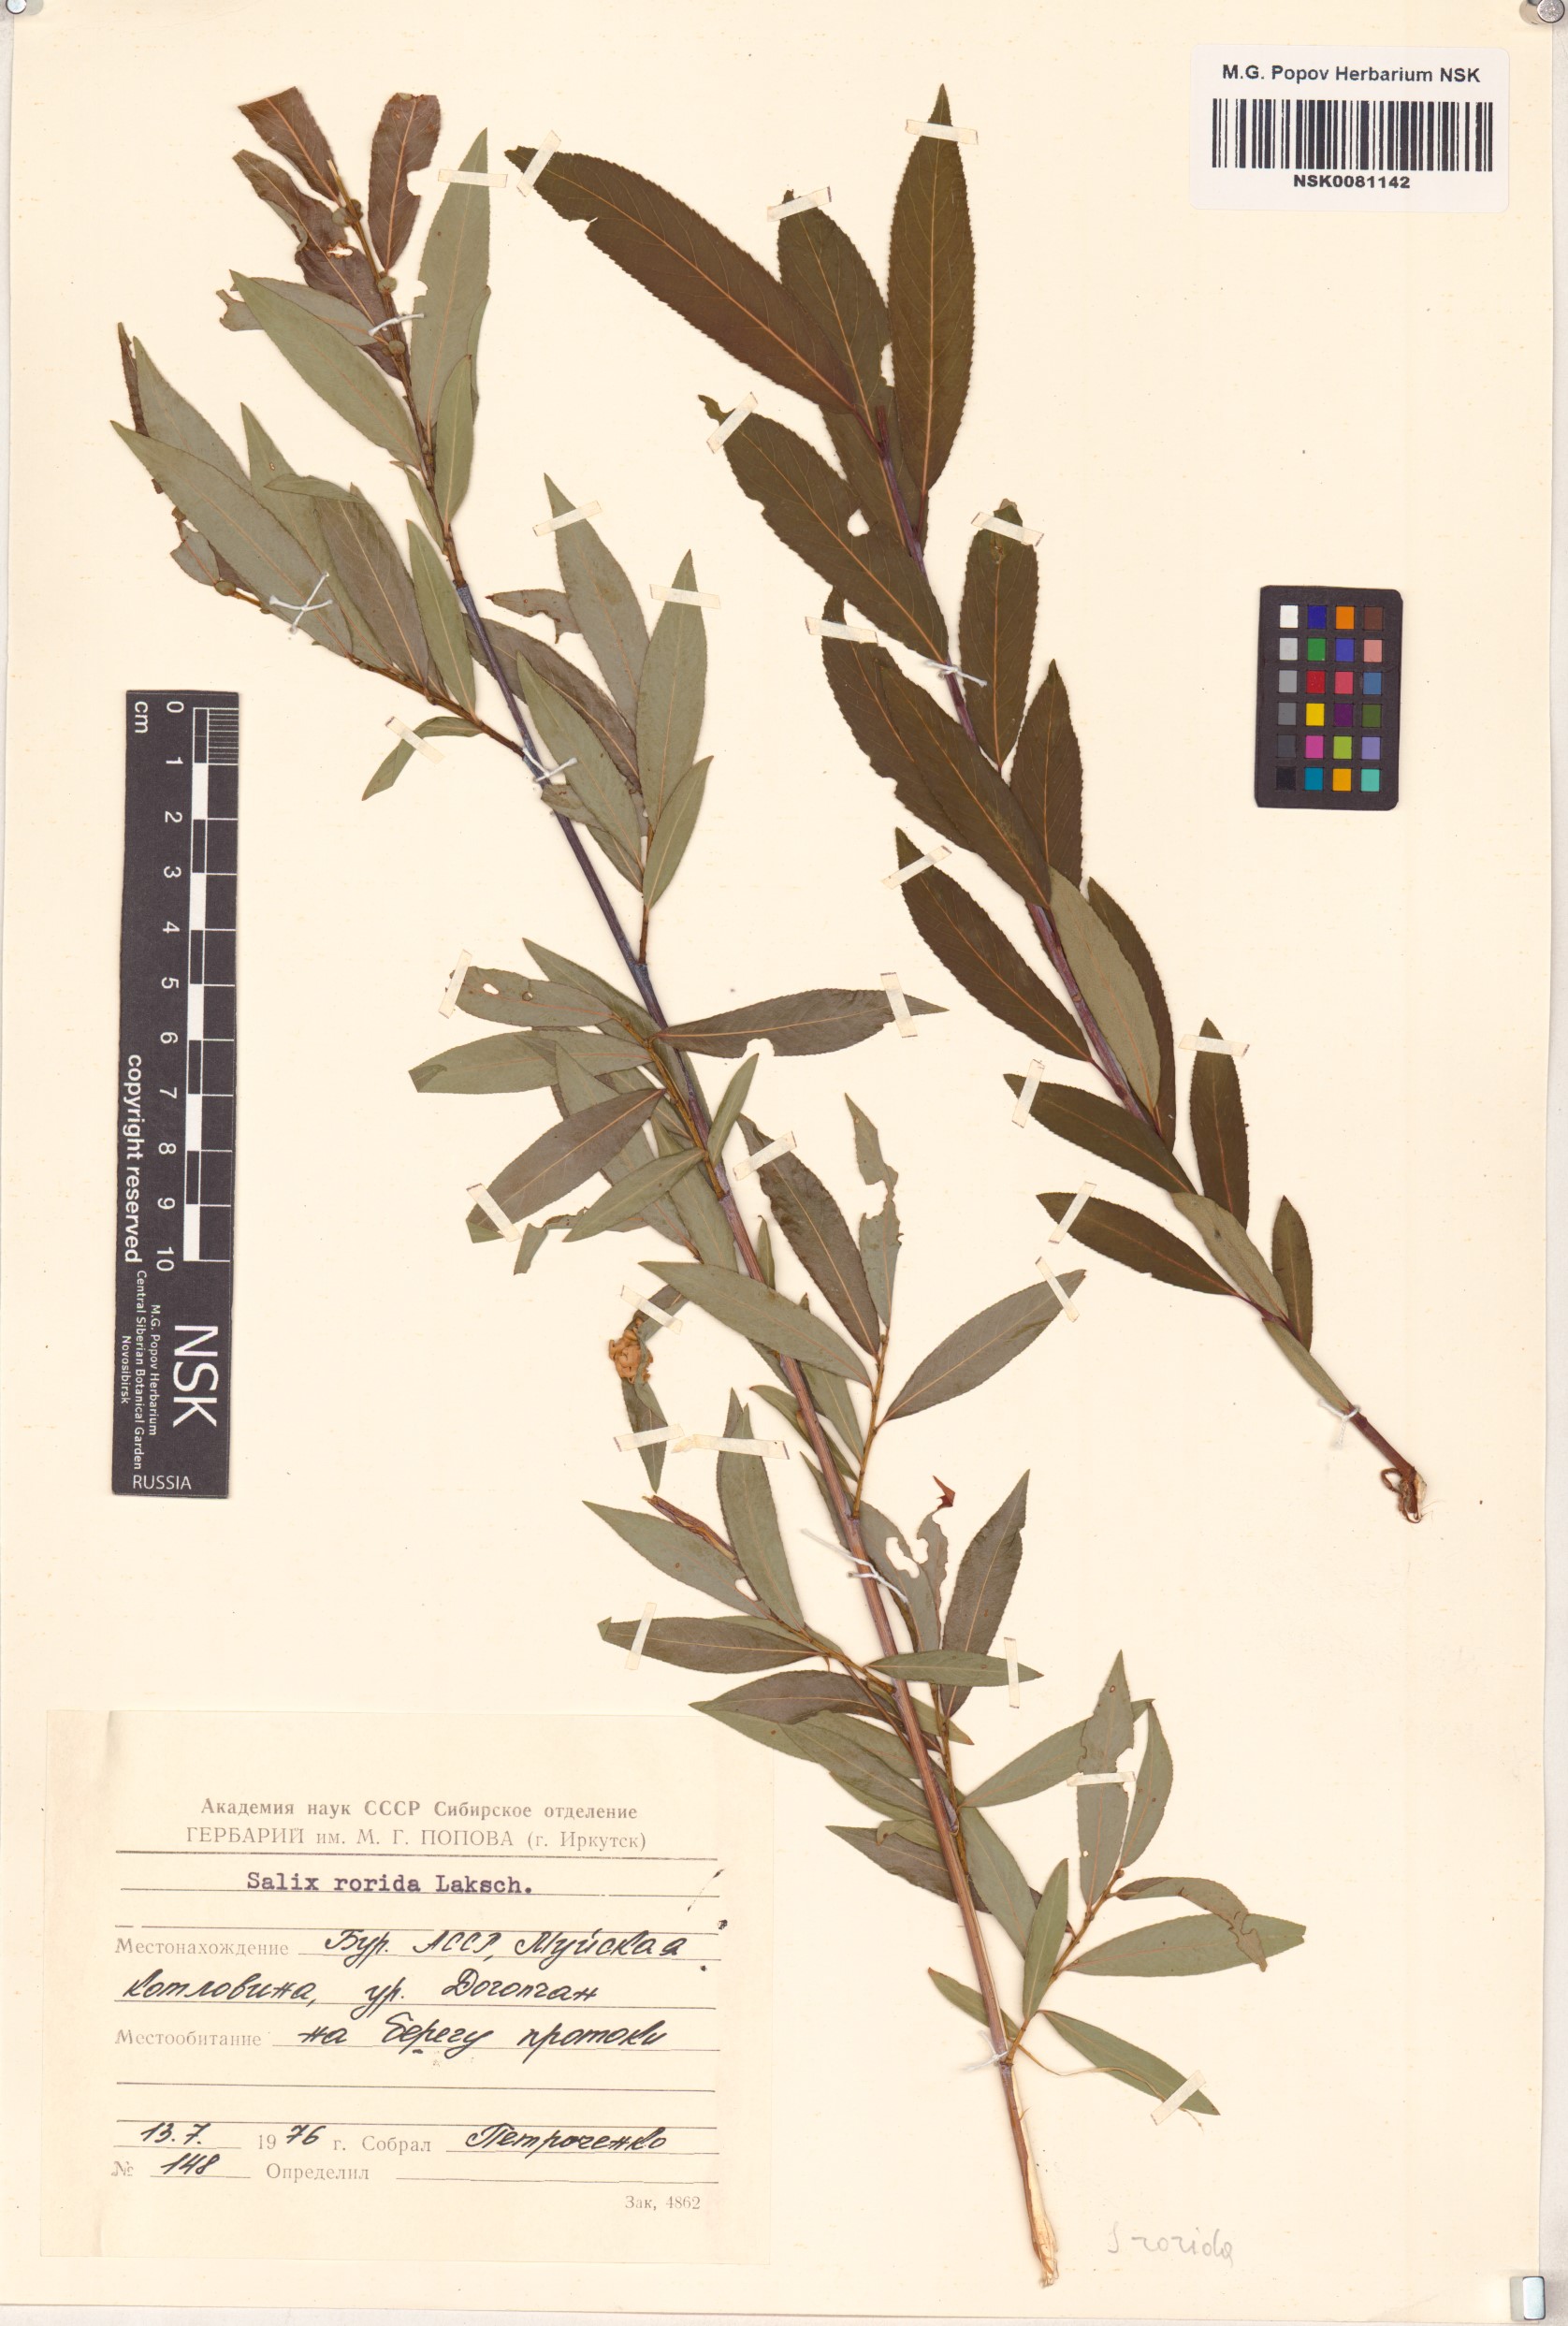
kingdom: Plantae
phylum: Tracheophyta
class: Magnoliopsida
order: Malpighiales
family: Salicaceae
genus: Salix
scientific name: Salix rorida
